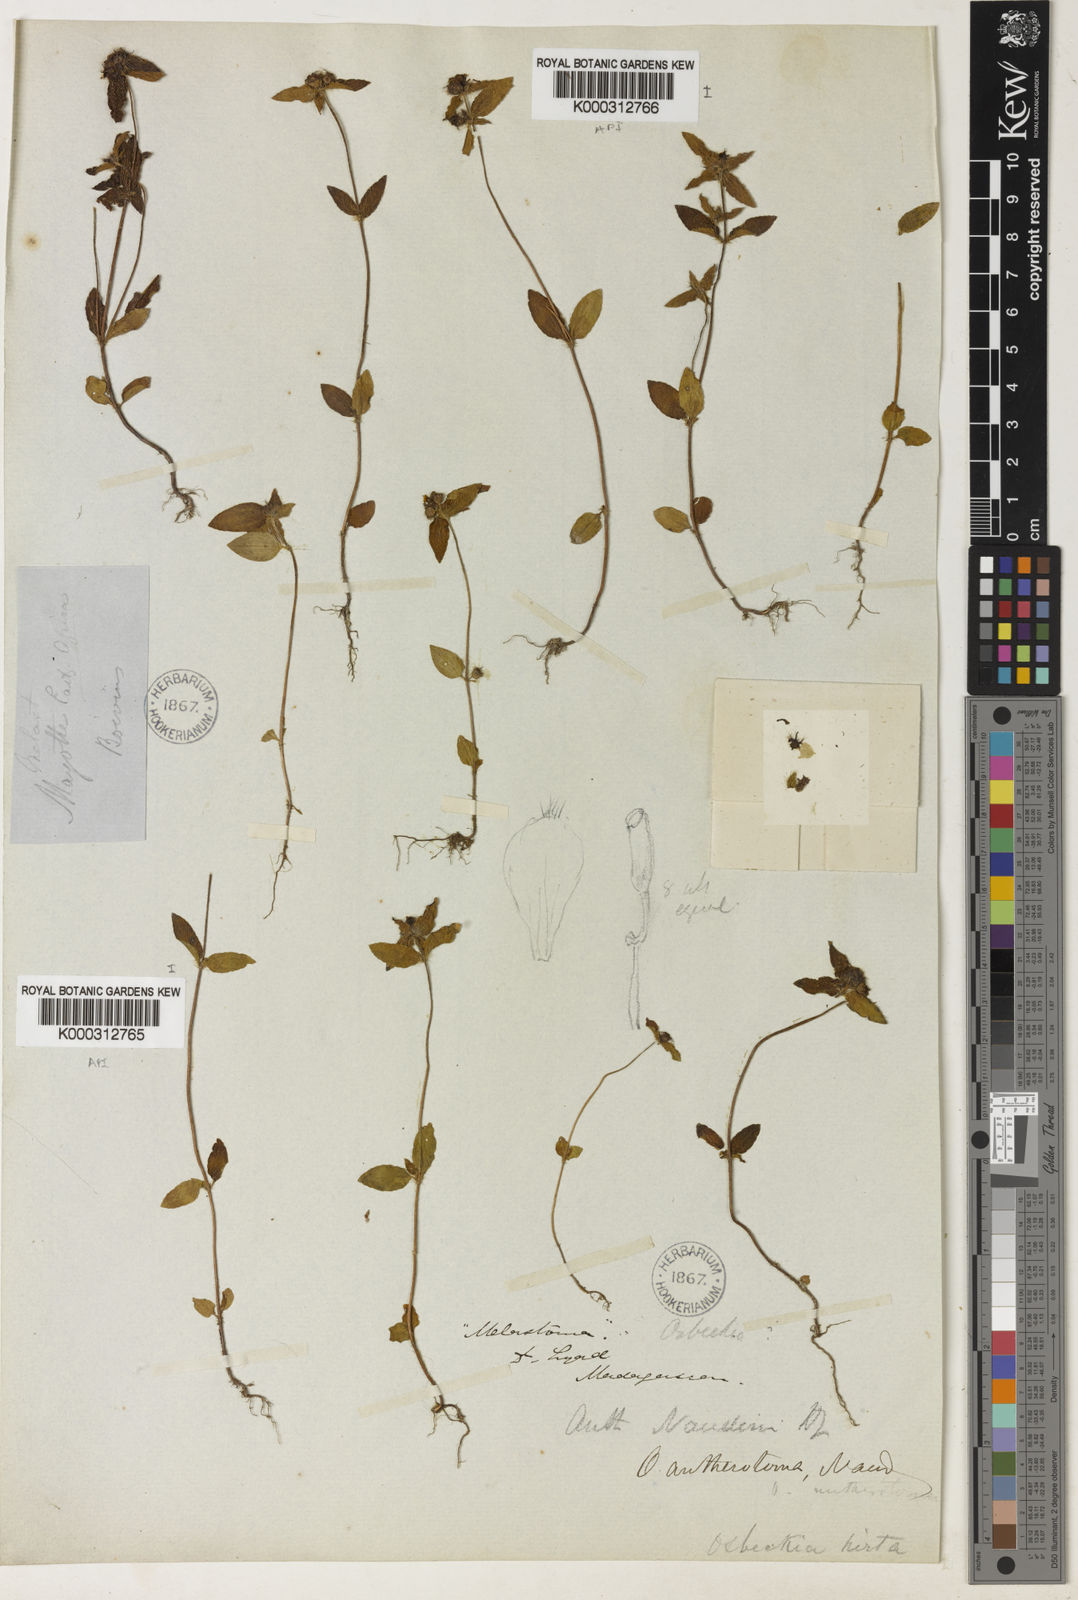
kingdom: Plantae
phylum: Tracheophyta
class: Magnoliopsida
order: Myrtales
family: Melastomataceae
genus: Antherotoma
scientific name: Antherotoma naudinii
